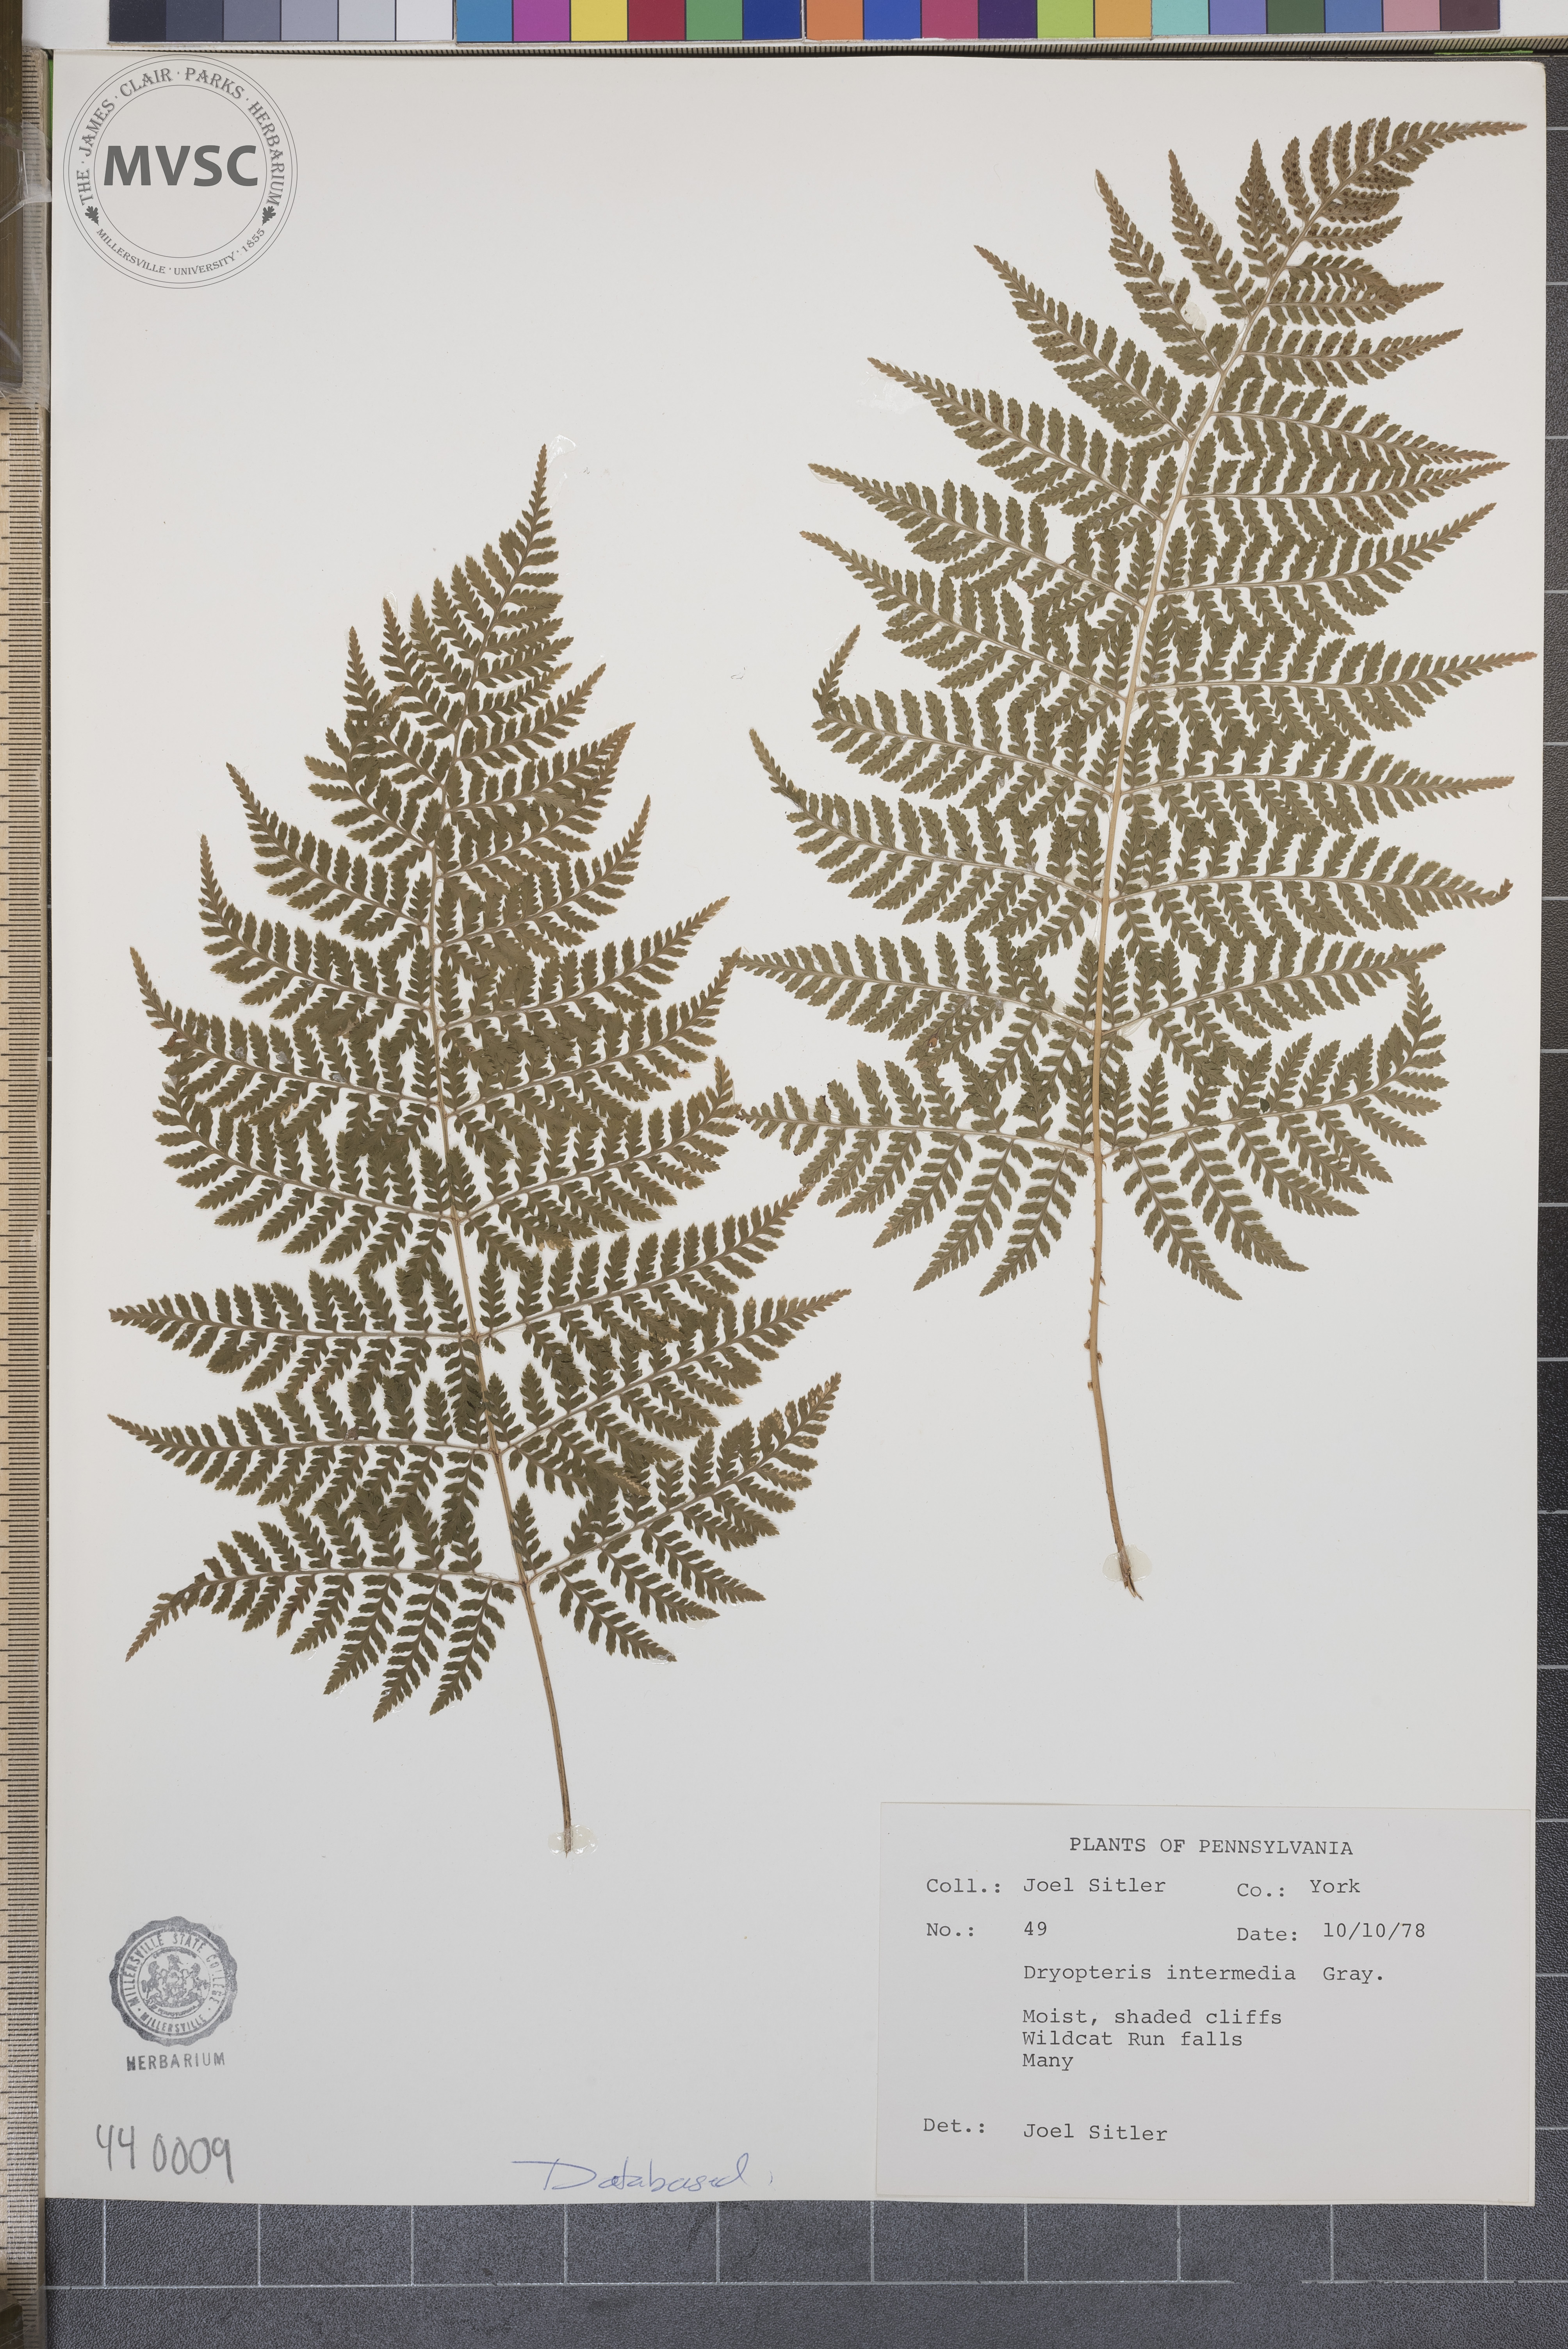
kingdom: Plantae
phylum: Tracheophyta
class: Polypodiopsida
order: Polypodiales
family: Dryopteridaceae
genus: Dryopteris
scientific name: Dryopteris intermedia
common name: Evergreen wood fern
